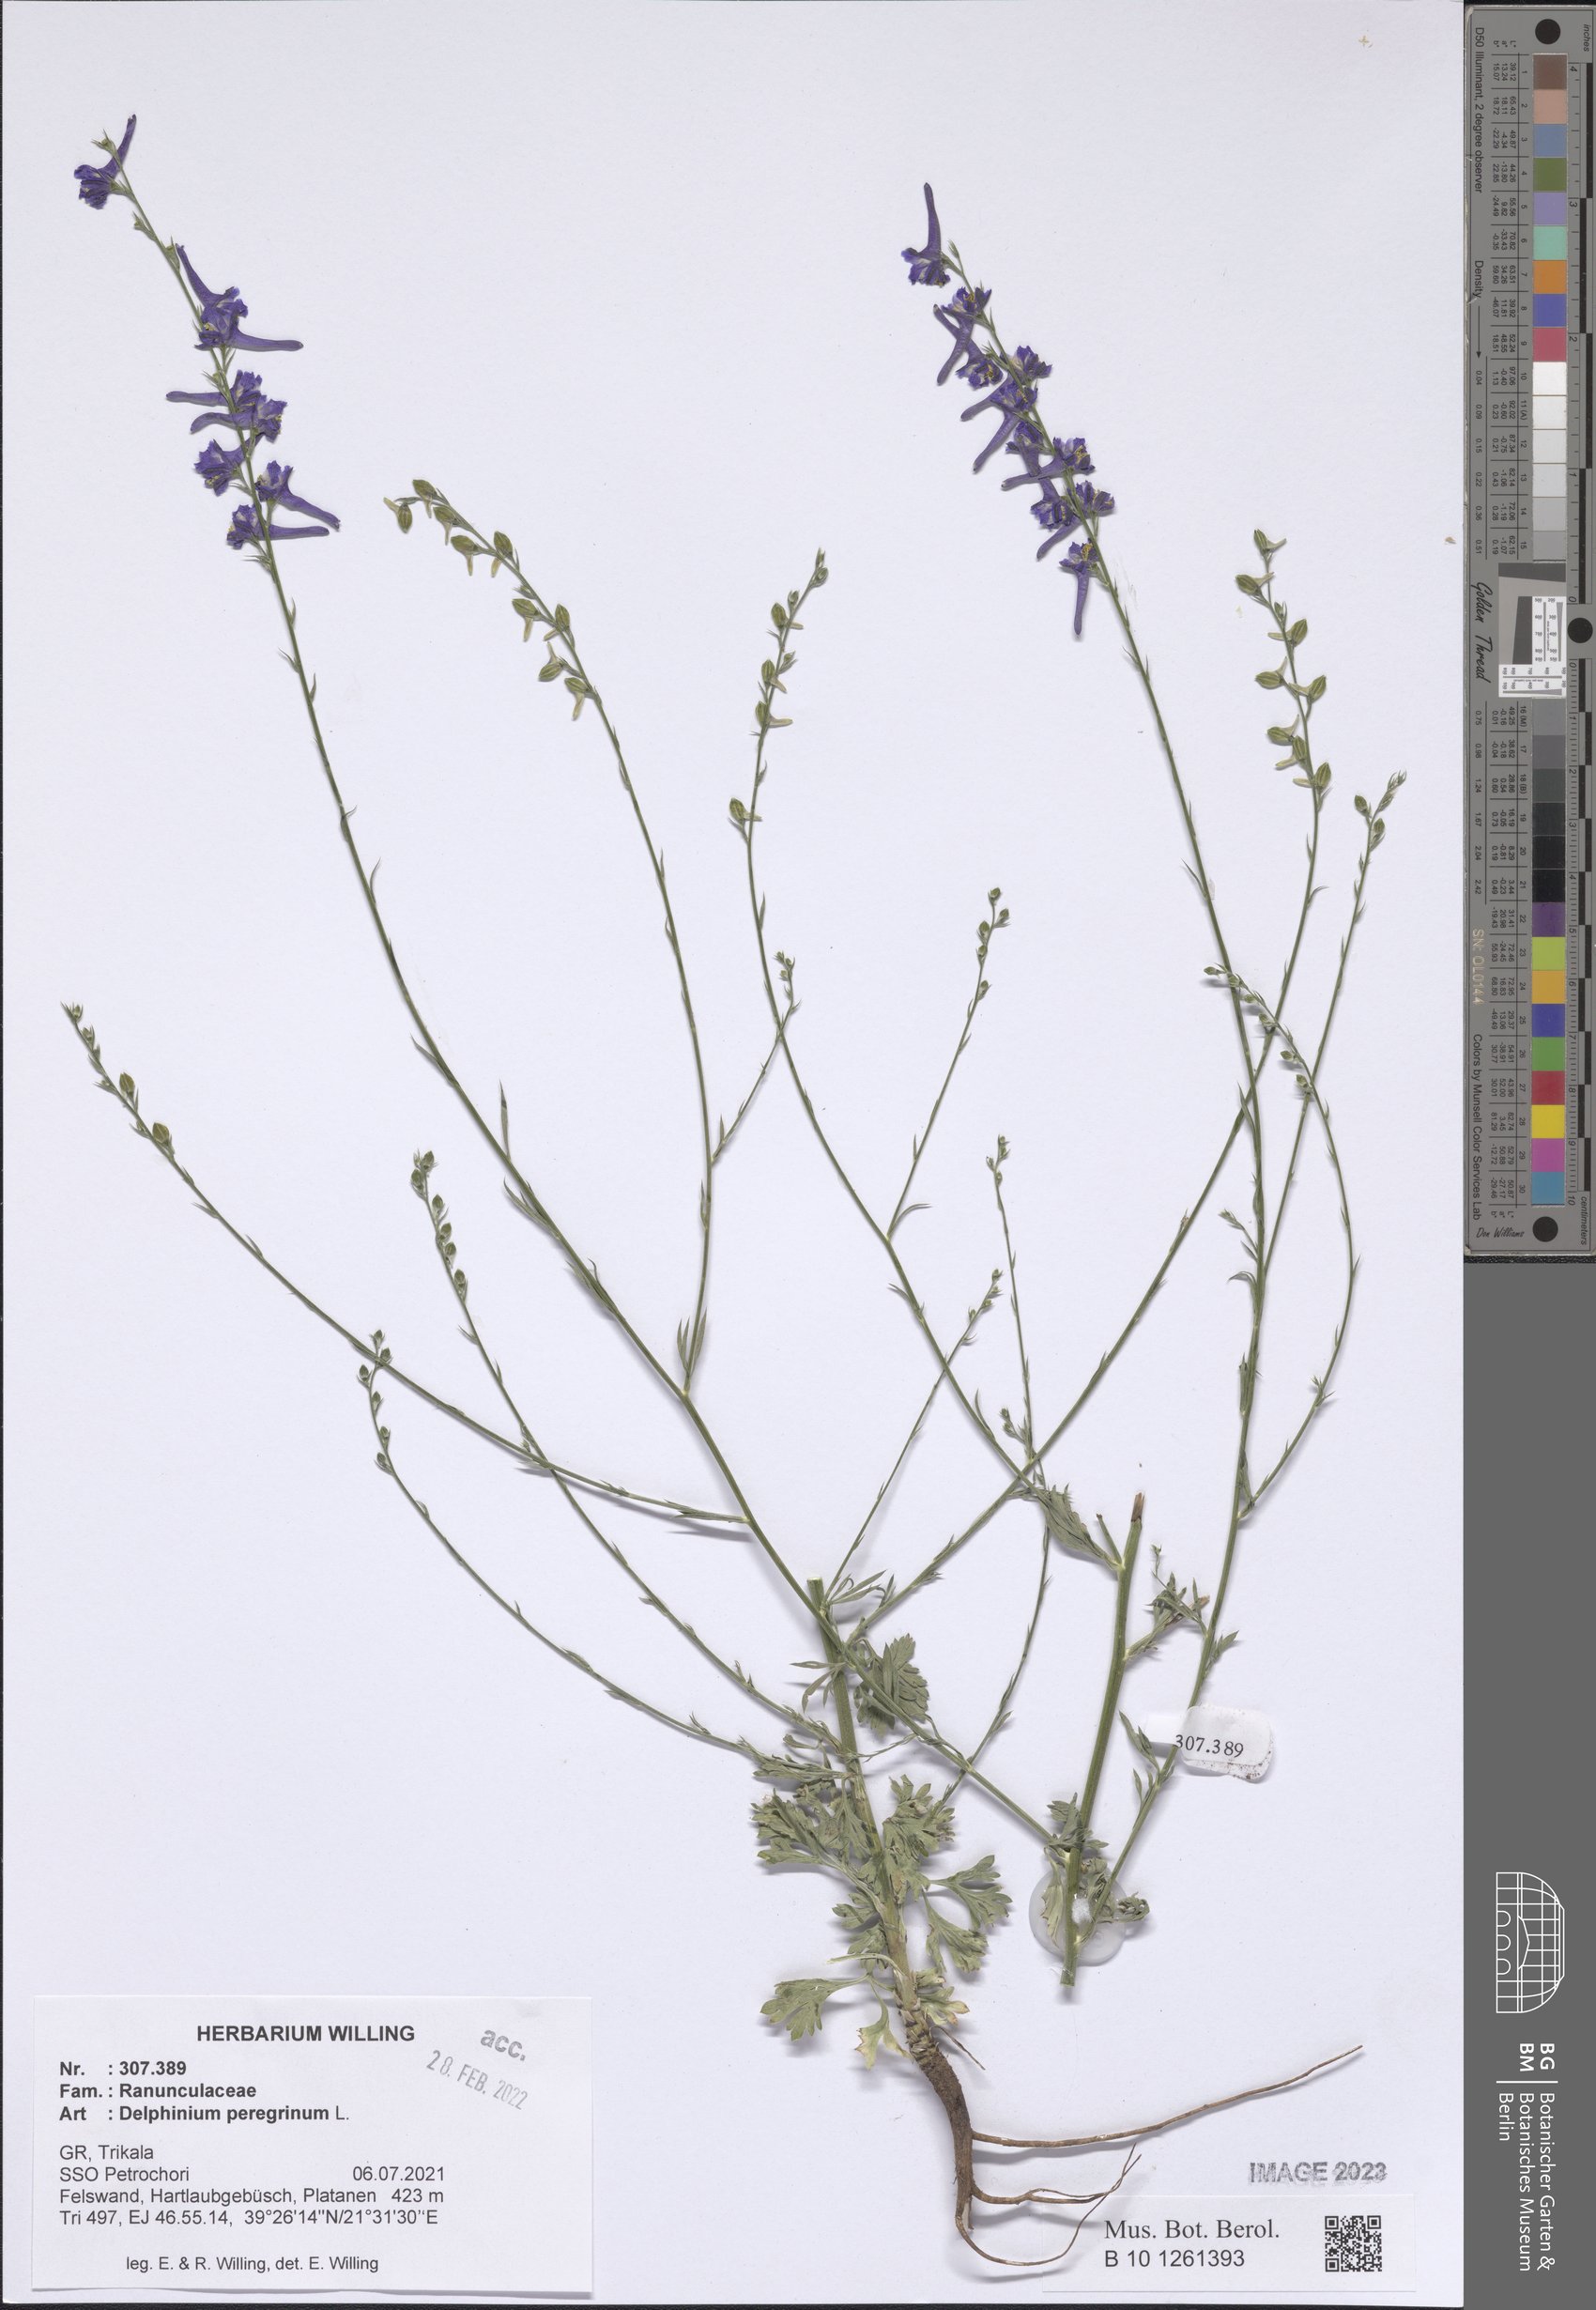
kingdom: Plantae
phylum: Tracheophyta
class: Magnoliopsida
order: Ranunculales
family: Ranunculaceae
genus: Delphinium
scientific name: Delphinium peregrinum
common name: Violet larkspur
